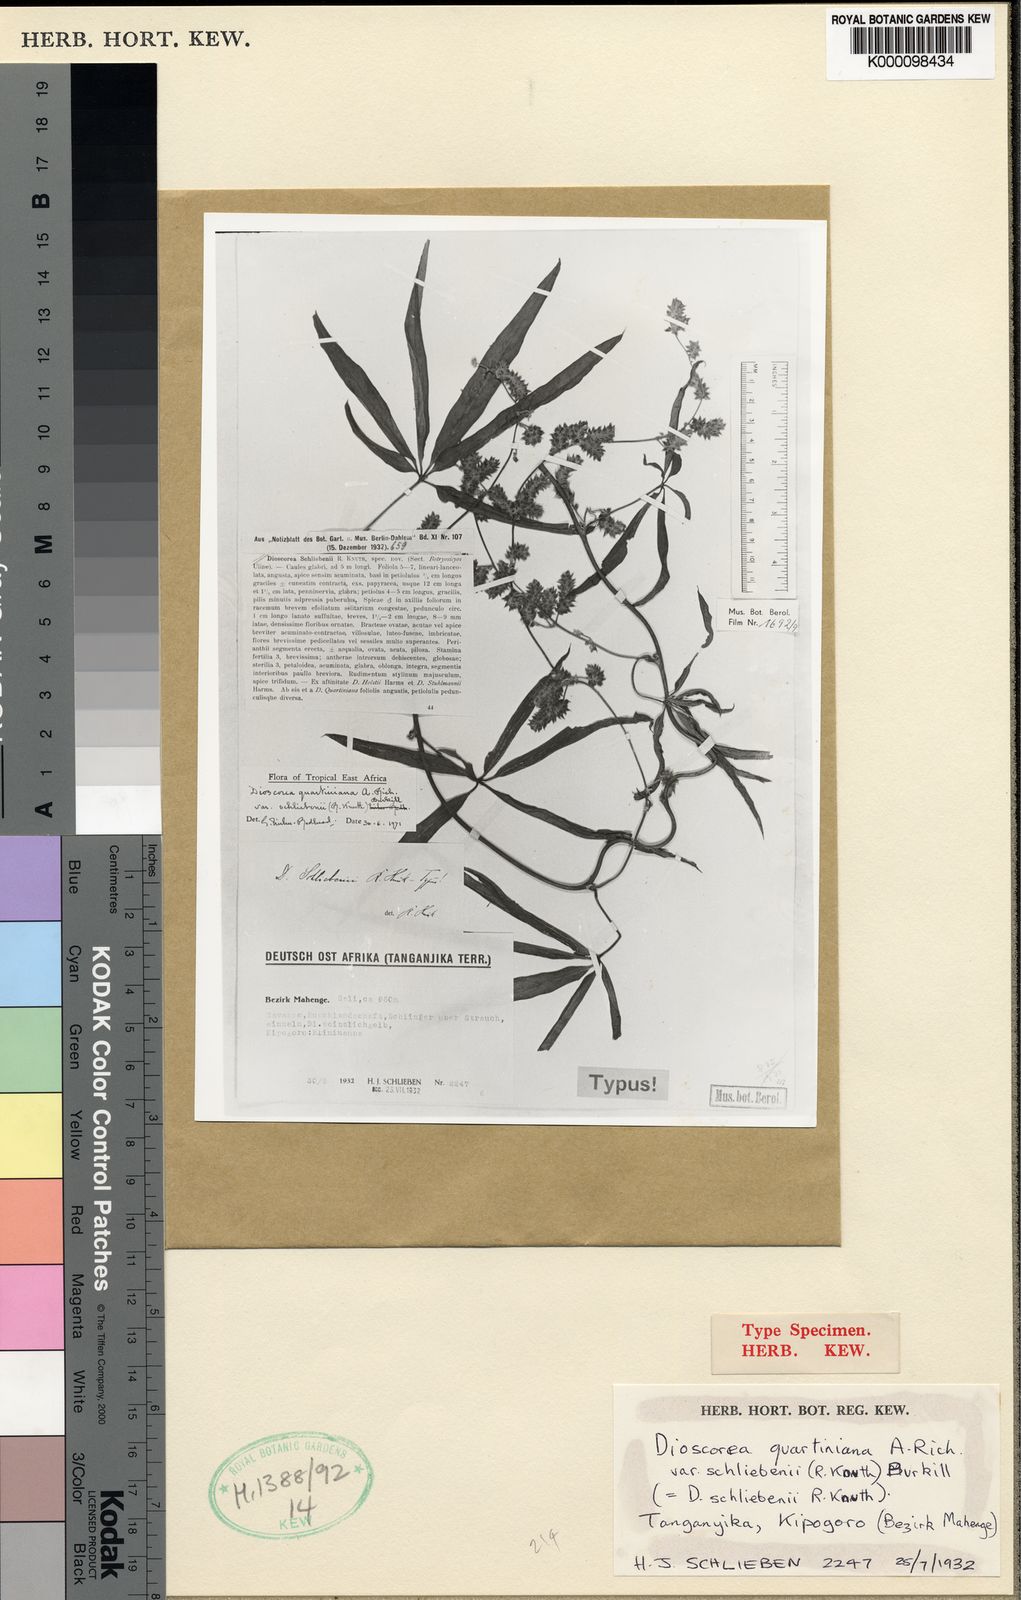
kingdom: Plantae
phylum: Tracheophyta
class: Liliopsida
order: Dioscoreales
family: Dioscoreaceae
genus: Dioscorea
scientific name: Dioscorea quartiniana
